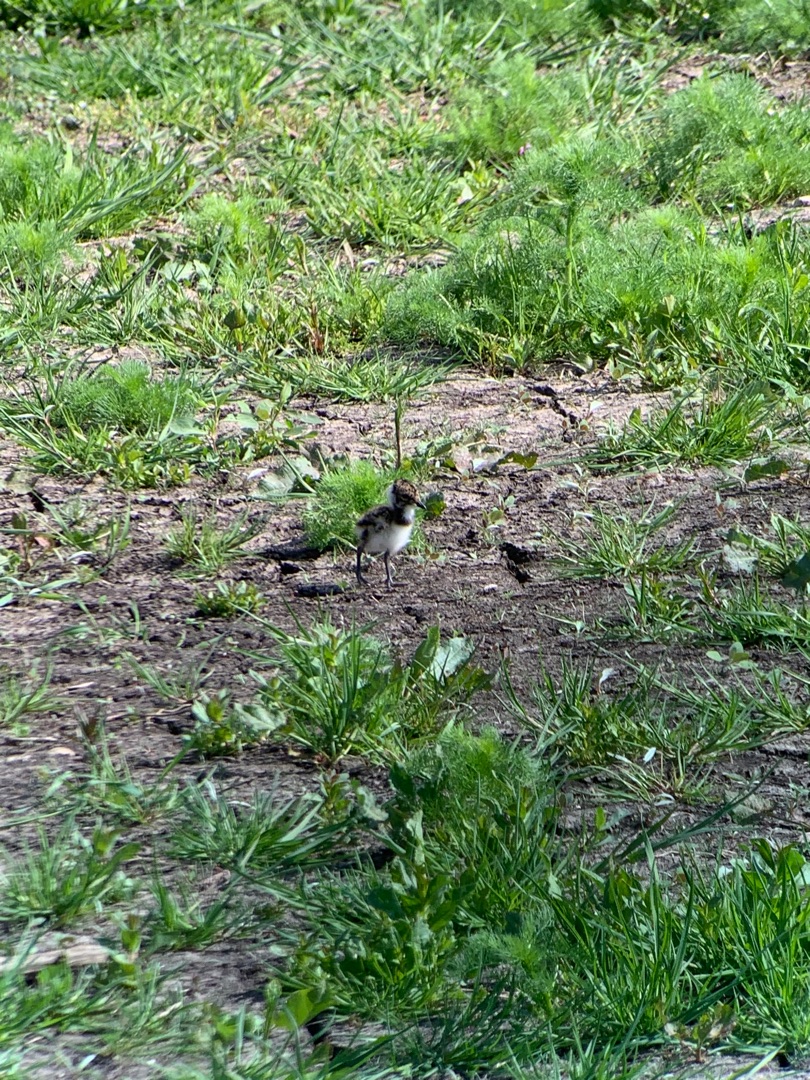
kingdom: Animalia
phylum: Chordata
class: Aves
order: Charadriiformes
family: Charadriidae
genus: Vanellus
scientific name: Vanellus vanellus
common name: Vibe
